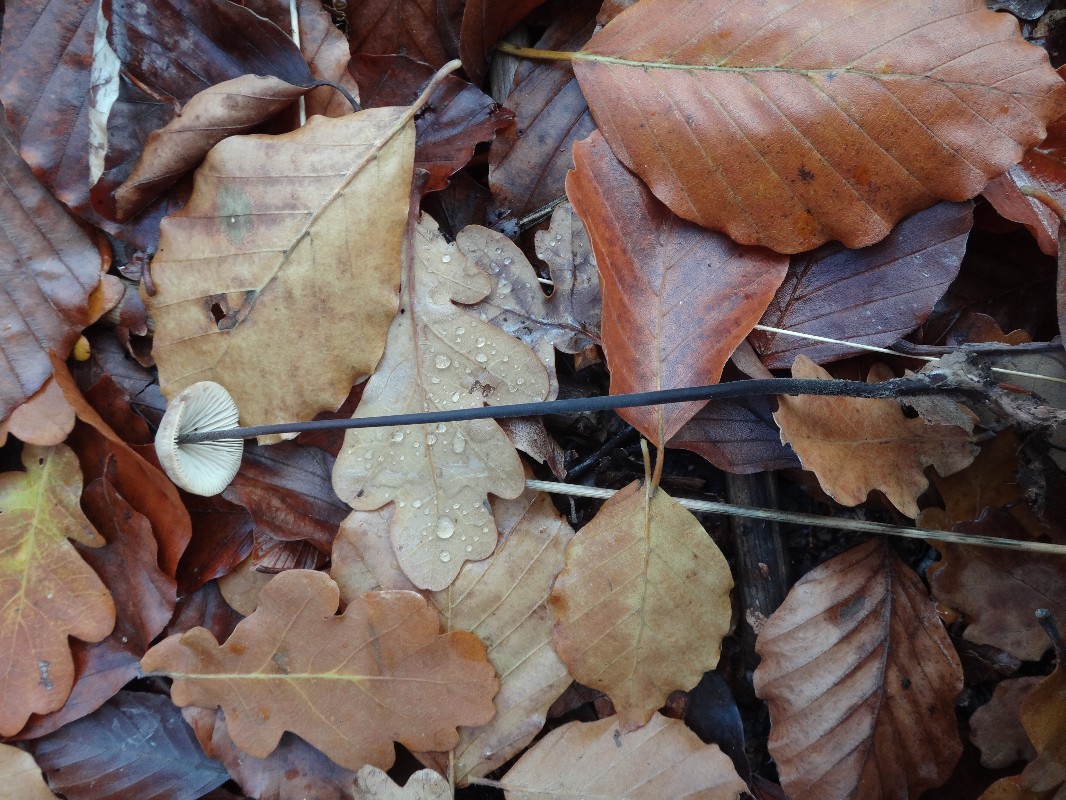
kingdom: Fungi
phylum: Basidiomycota
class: Agaricomycetes
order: Agaricales
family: Omphalotaceae
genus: Mycetinis
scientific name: Mycetinis alliaceus
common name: stor løghat
